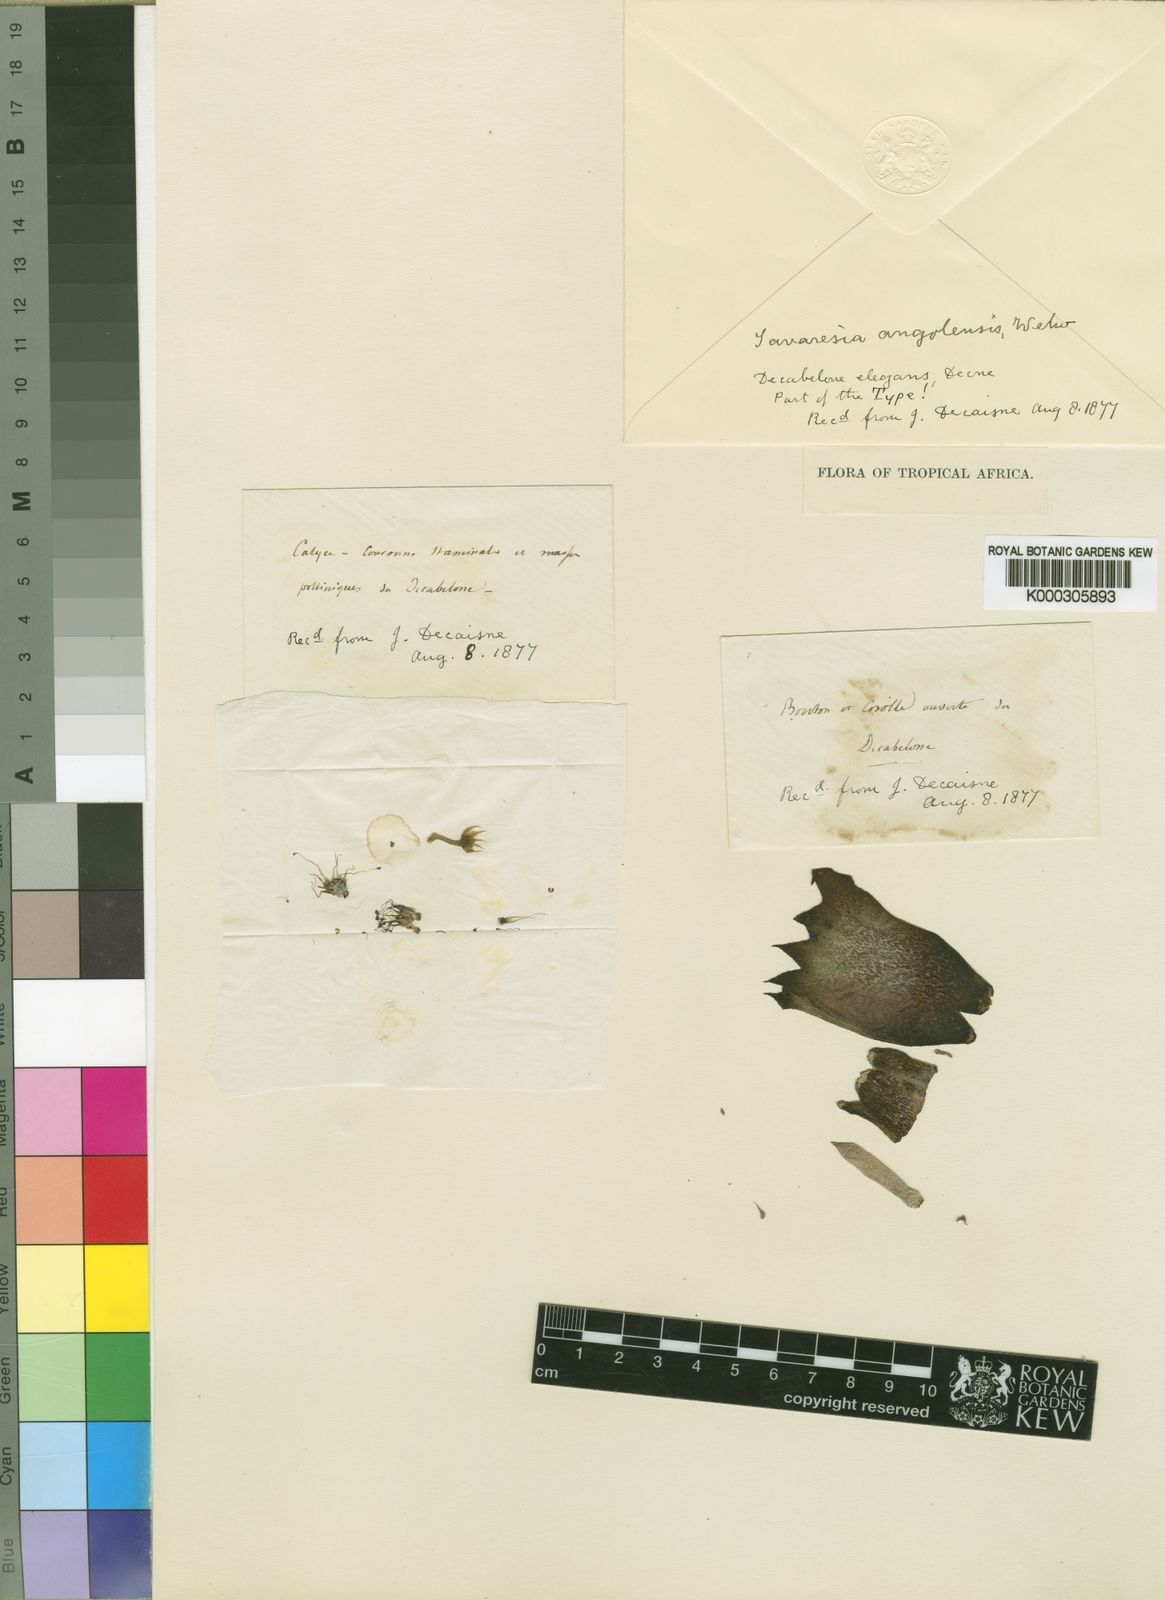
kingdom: Plantae
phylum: Tracheophyta
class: Magnoliopsida
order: Gentianales
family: Apocynaceae
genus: Ceropegia
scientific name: Ceropegia tavaresii
